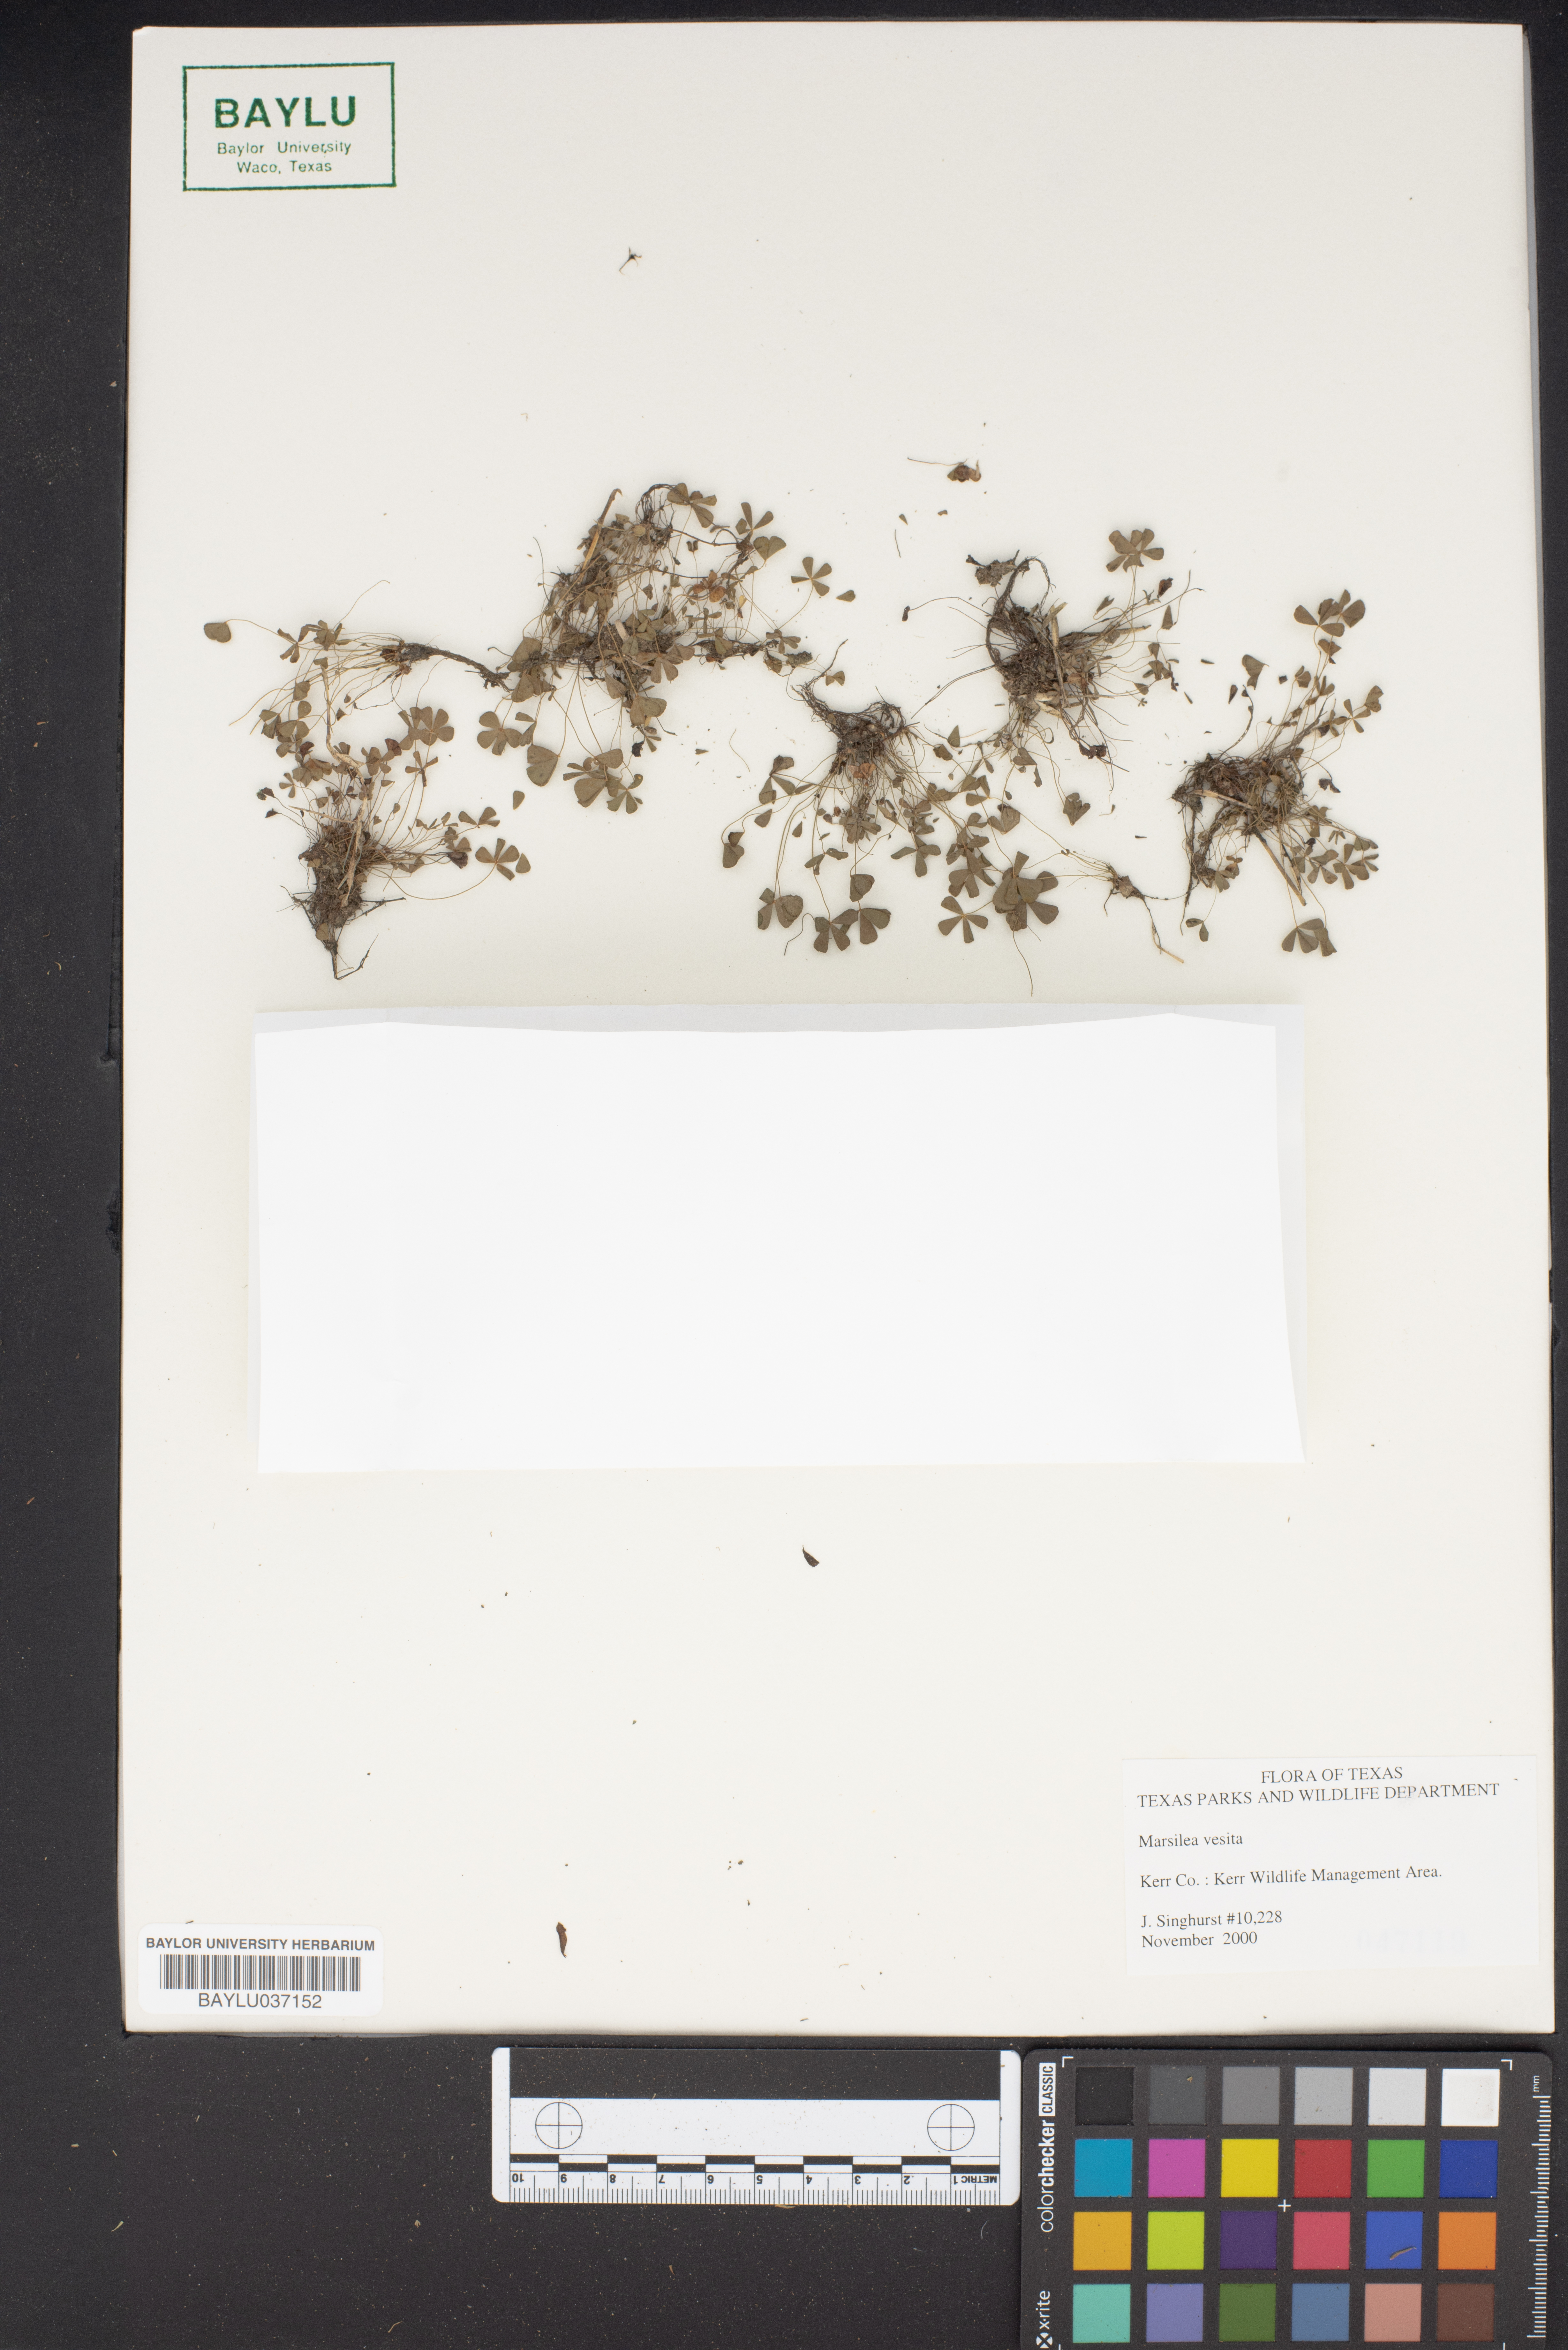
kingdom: Plantae
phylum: Tracheophyta
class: Polypodiopsida
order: Salviniales
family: Marsileaceae
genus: Marsilea
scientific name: Marsilea vestita
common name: Hooked-pepperwort
